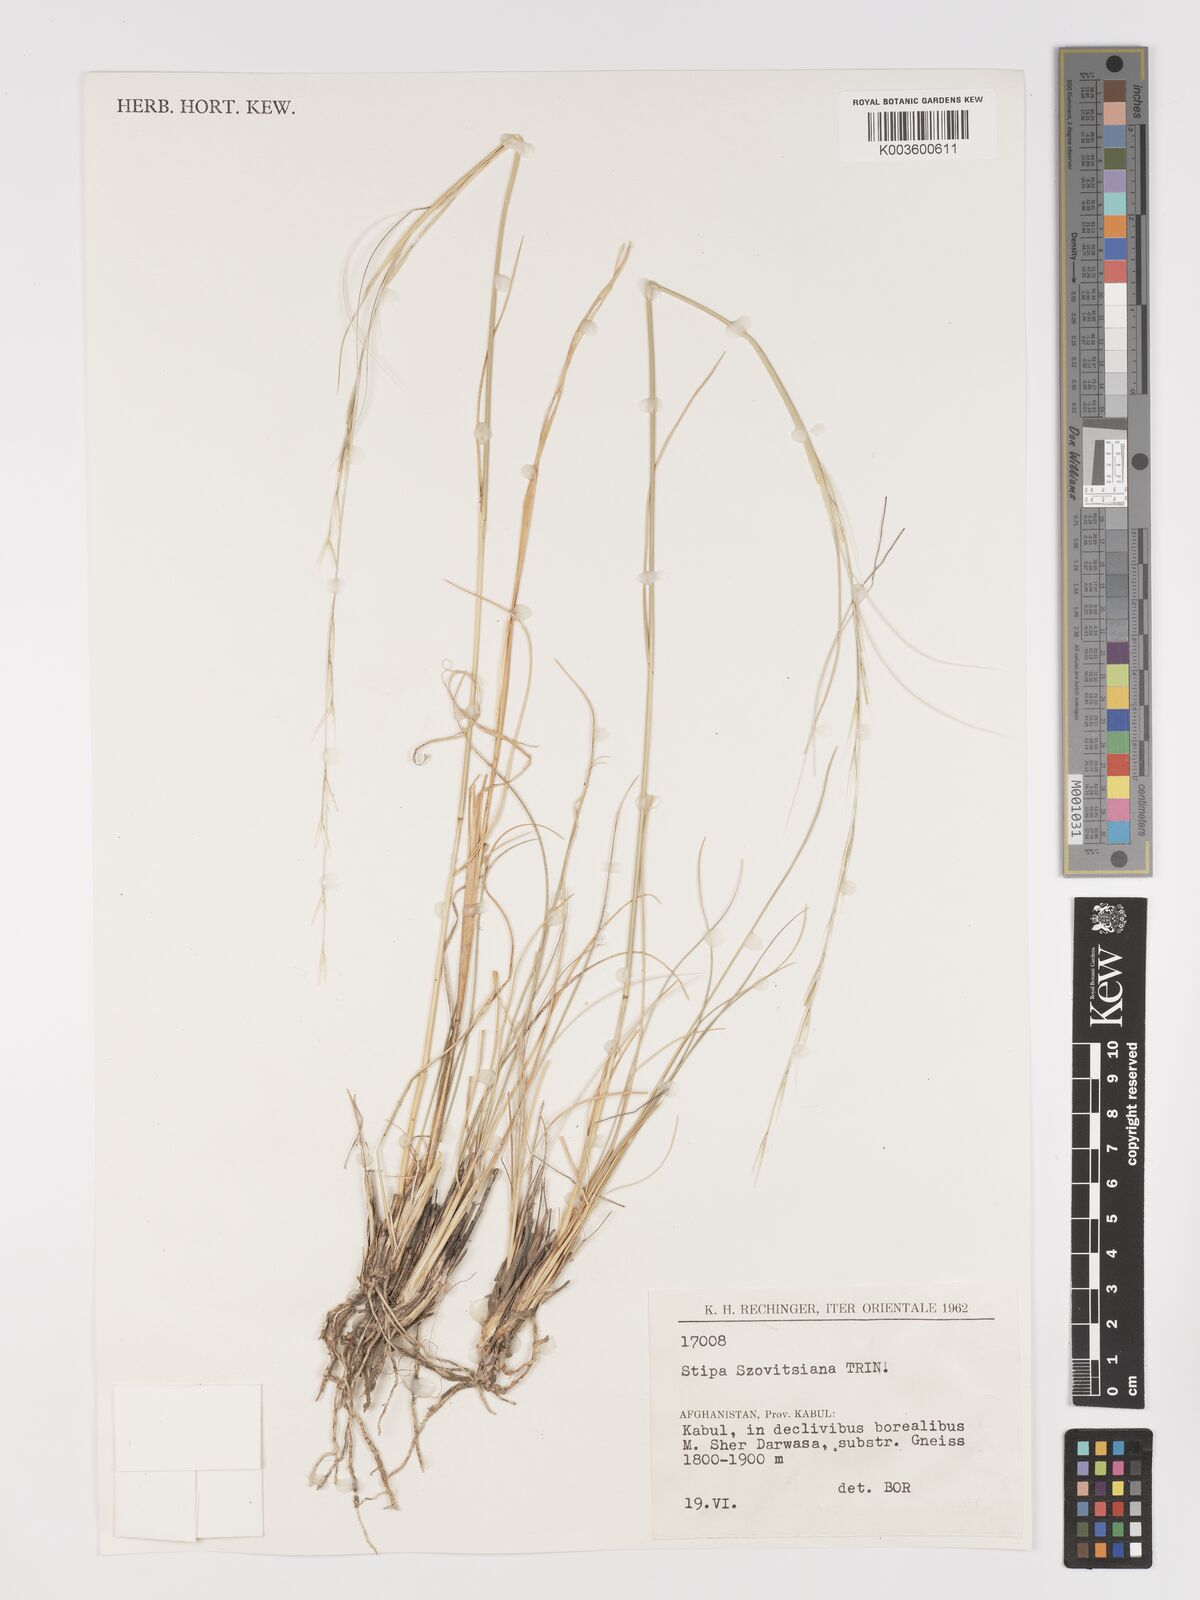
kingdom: Plantae
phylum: Tracheophyta
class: Liliopsida
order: Poales
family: Poaceae
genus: Stipa
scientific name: Stipa barbata
